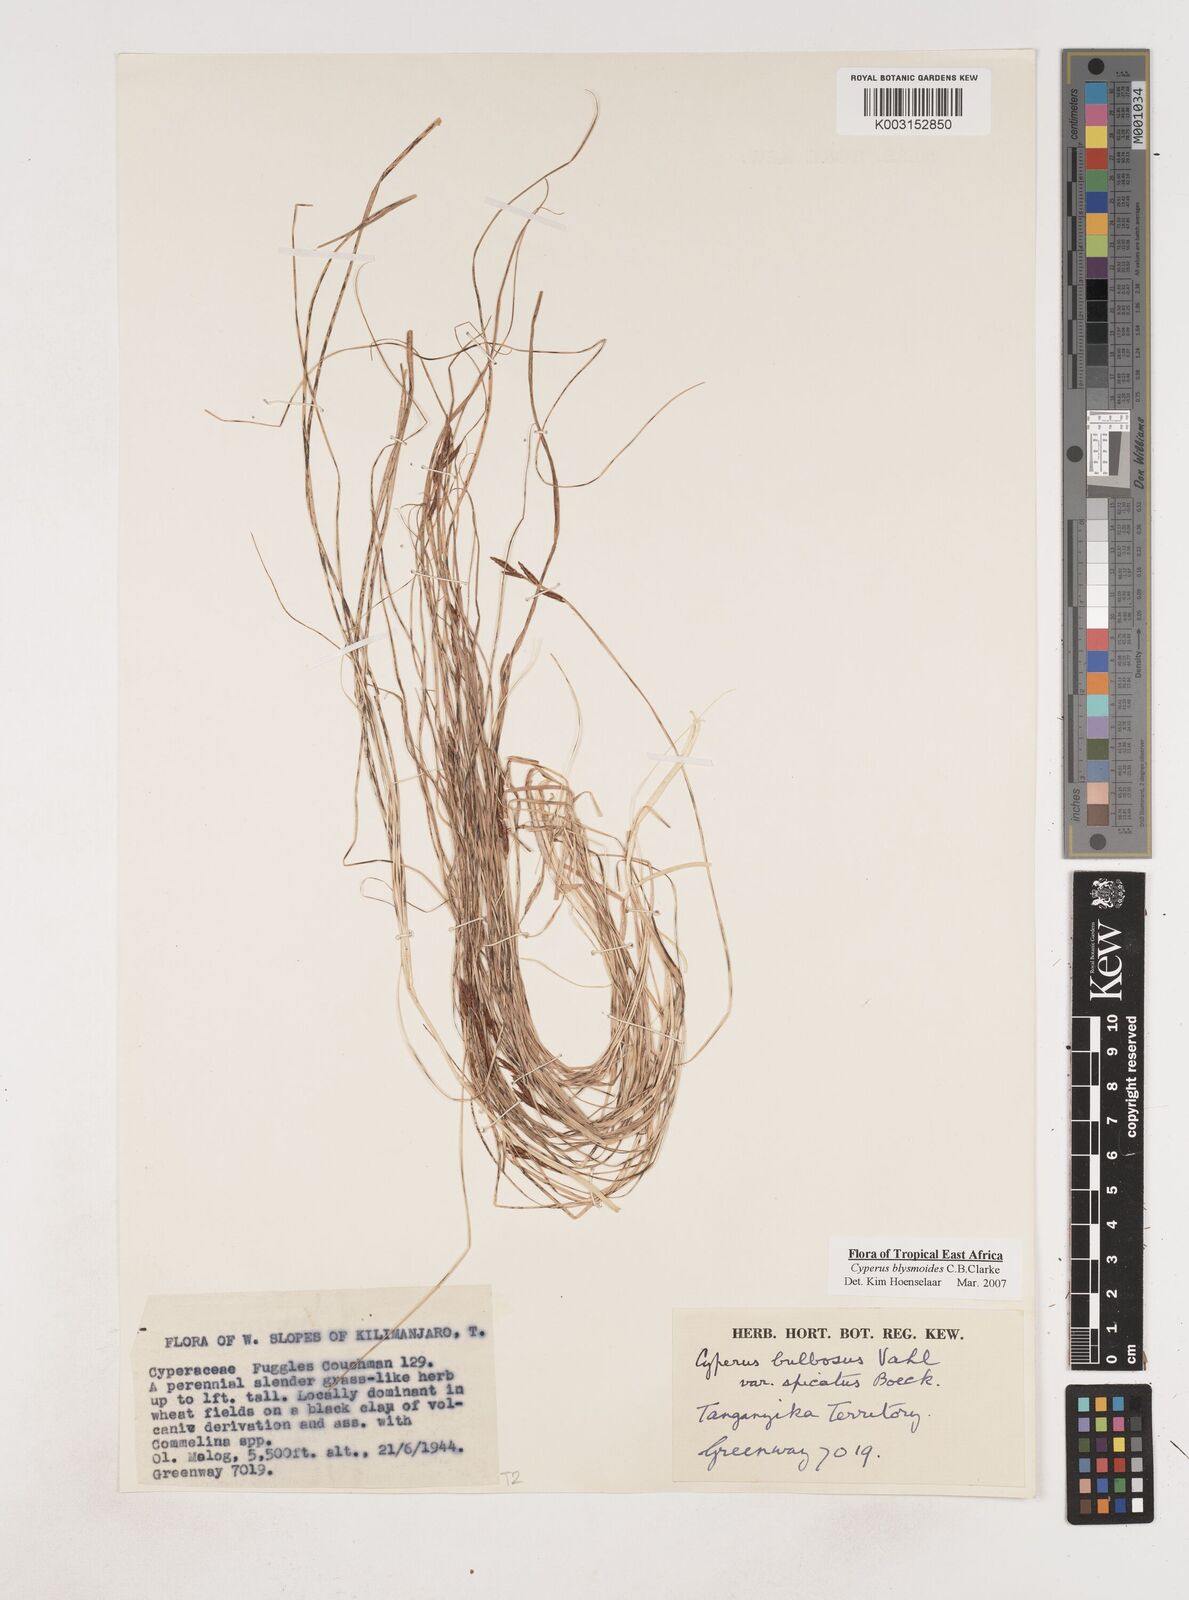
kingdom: Plantae
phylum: Tracheophyta
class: Liliopsida
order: Poales
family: Cyperaceae
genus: Cyperus
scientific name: Cyperus blysmoides
